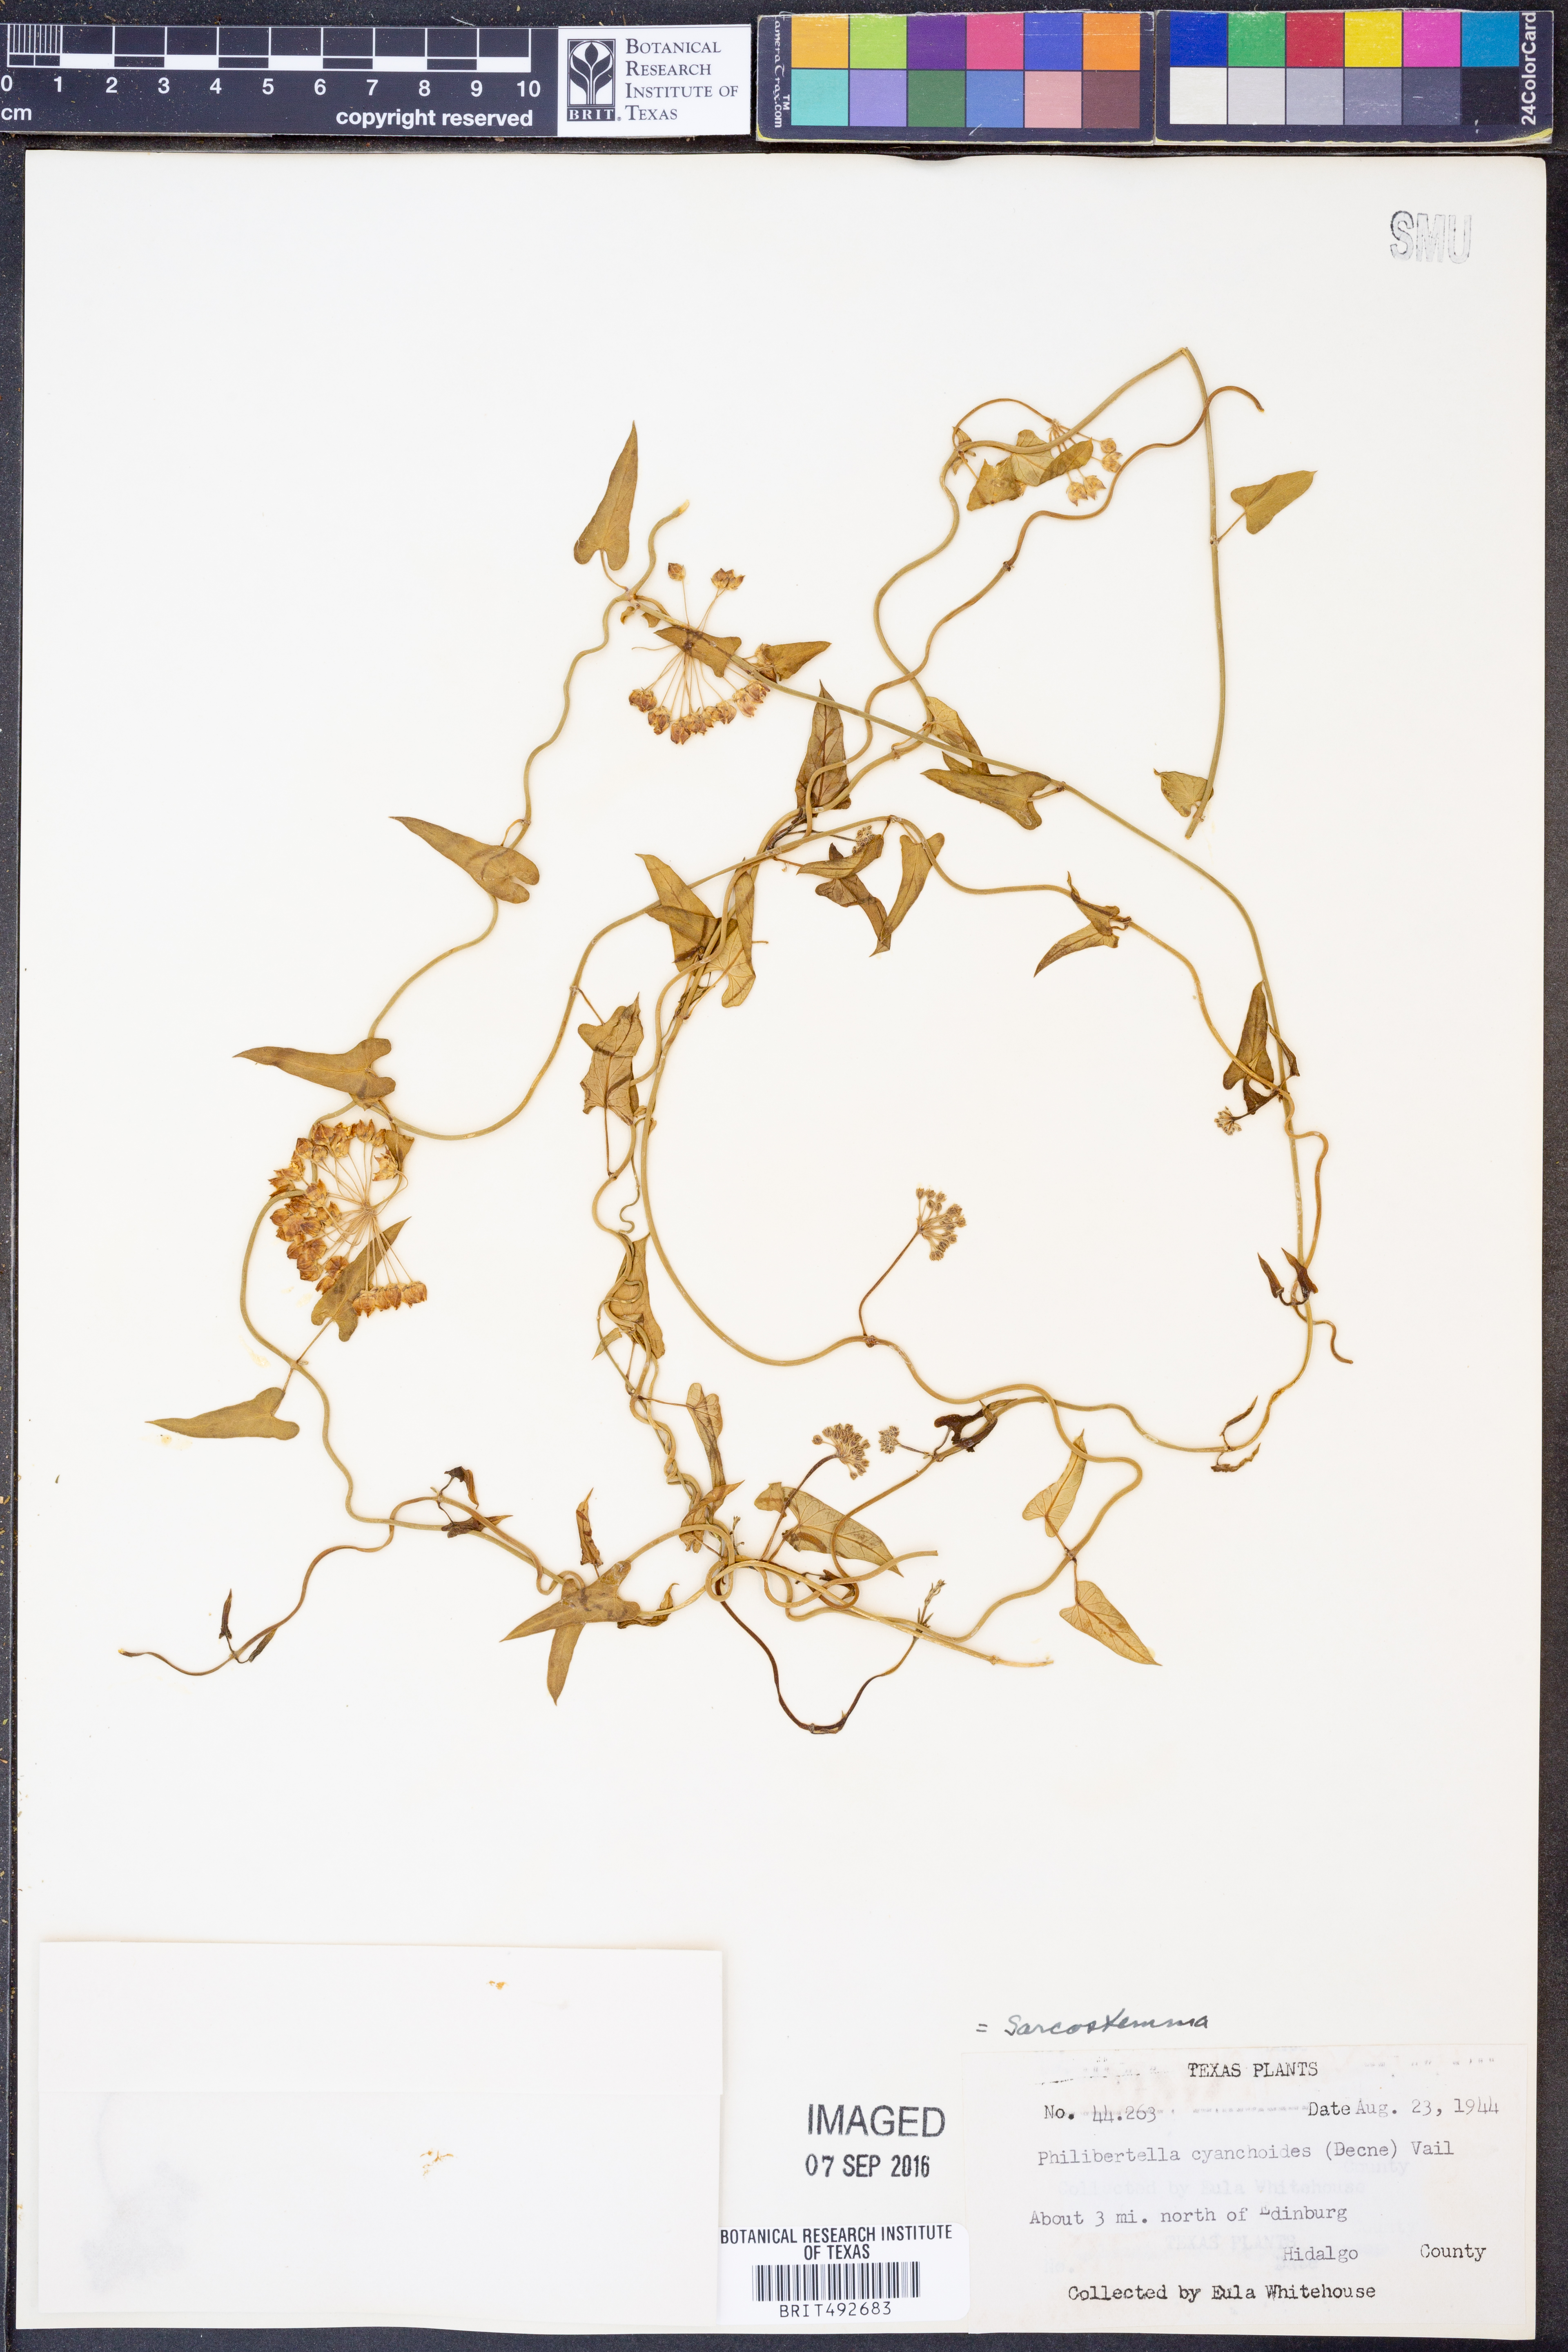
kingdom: Plantae
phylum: Tracheophyta
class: Magnoliopsida
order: Gentianales
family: Apocynaceae
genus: Funastrum
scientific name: Funastrum cynanchoides
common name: Climbing-milkweed
